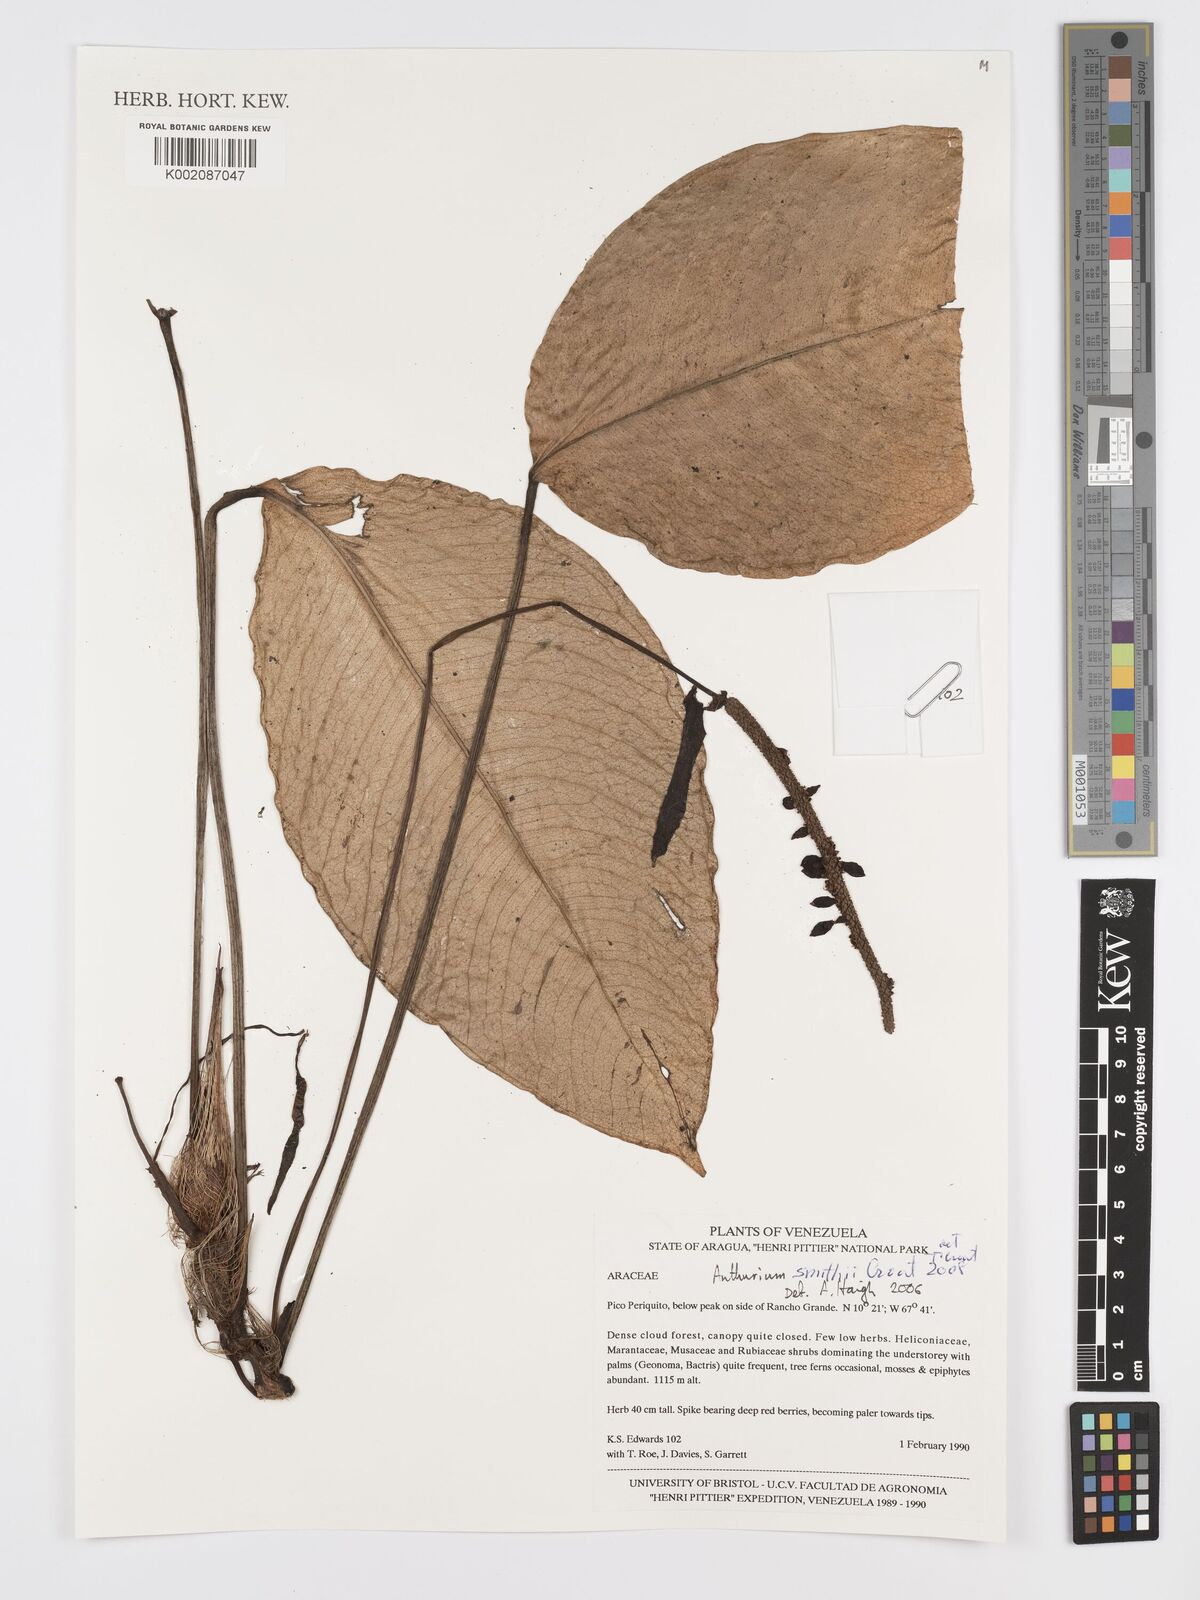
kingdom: Plantae
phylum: Tracheophyta
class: Liliopsida
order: Alismatales
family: Araceae
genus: Anthurium
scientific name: Anthurium smithii
